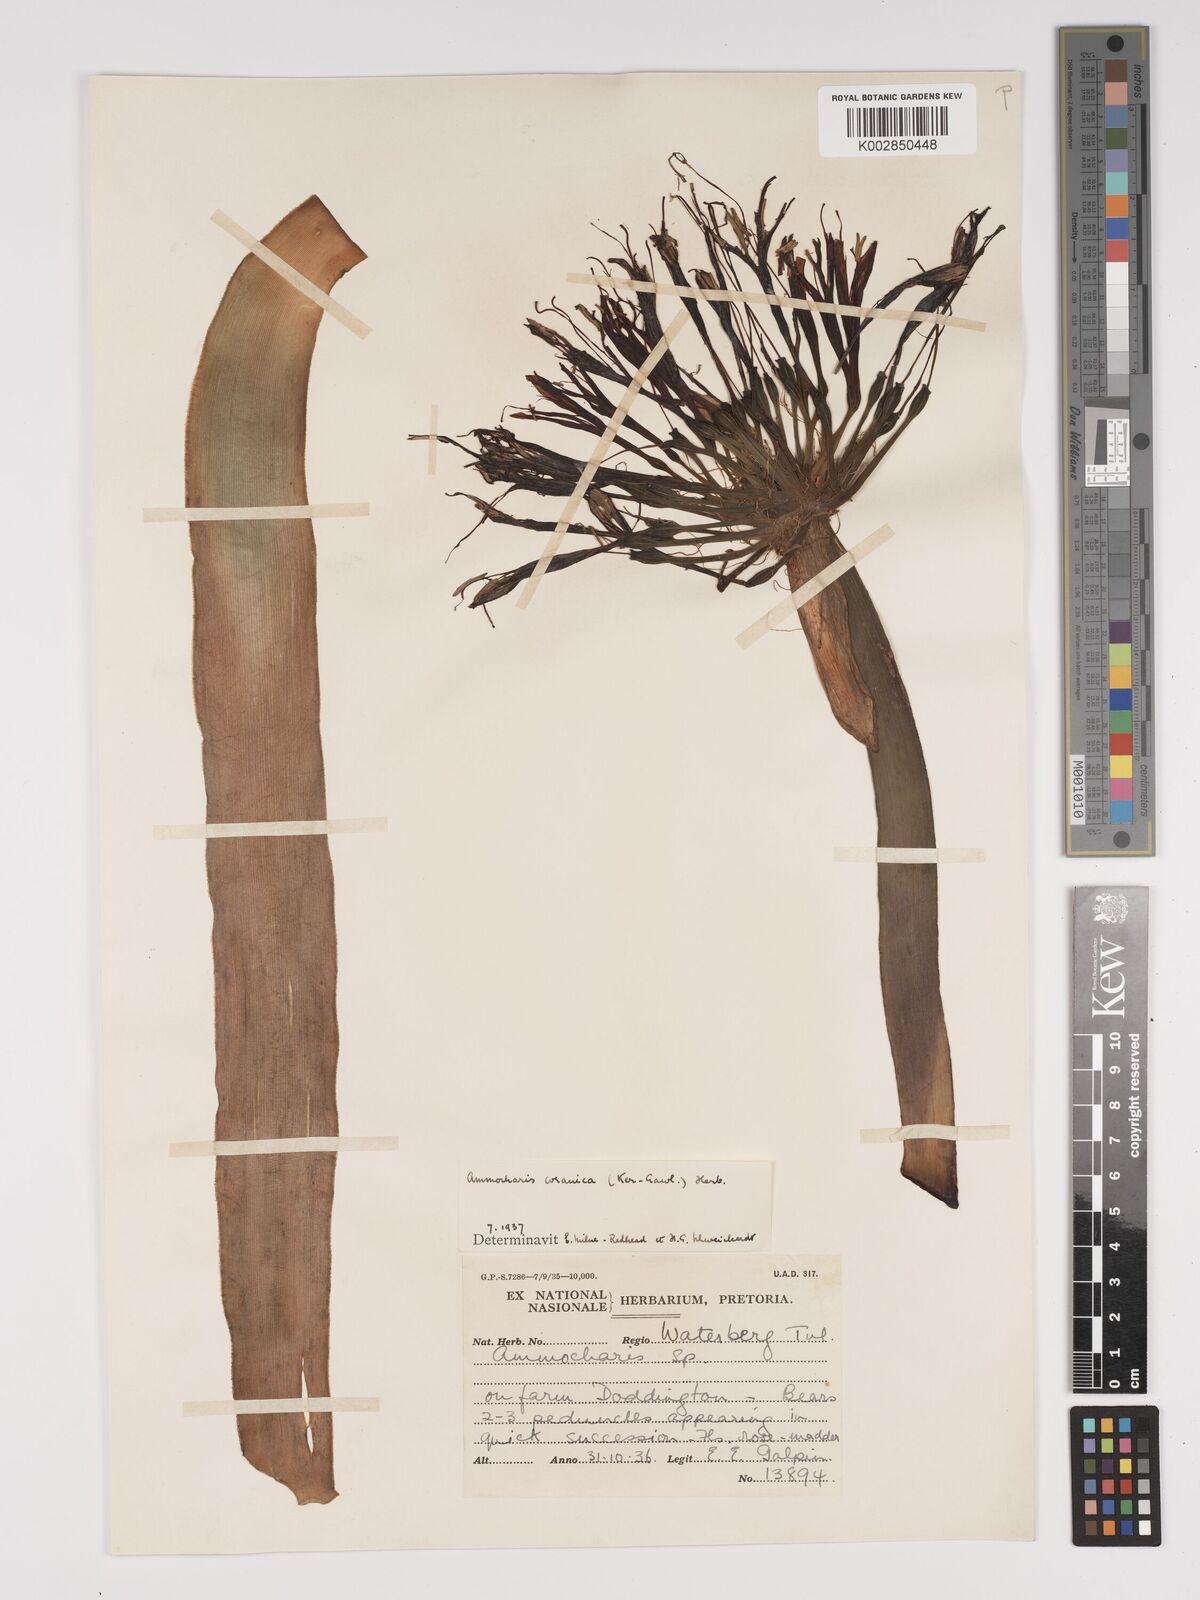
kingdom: Plantae
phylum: Tracheophyta
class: Liliopsida
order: Asparagales
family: Amaryllidaceae
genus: Ammocharis
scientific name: Ammocharis coranica
